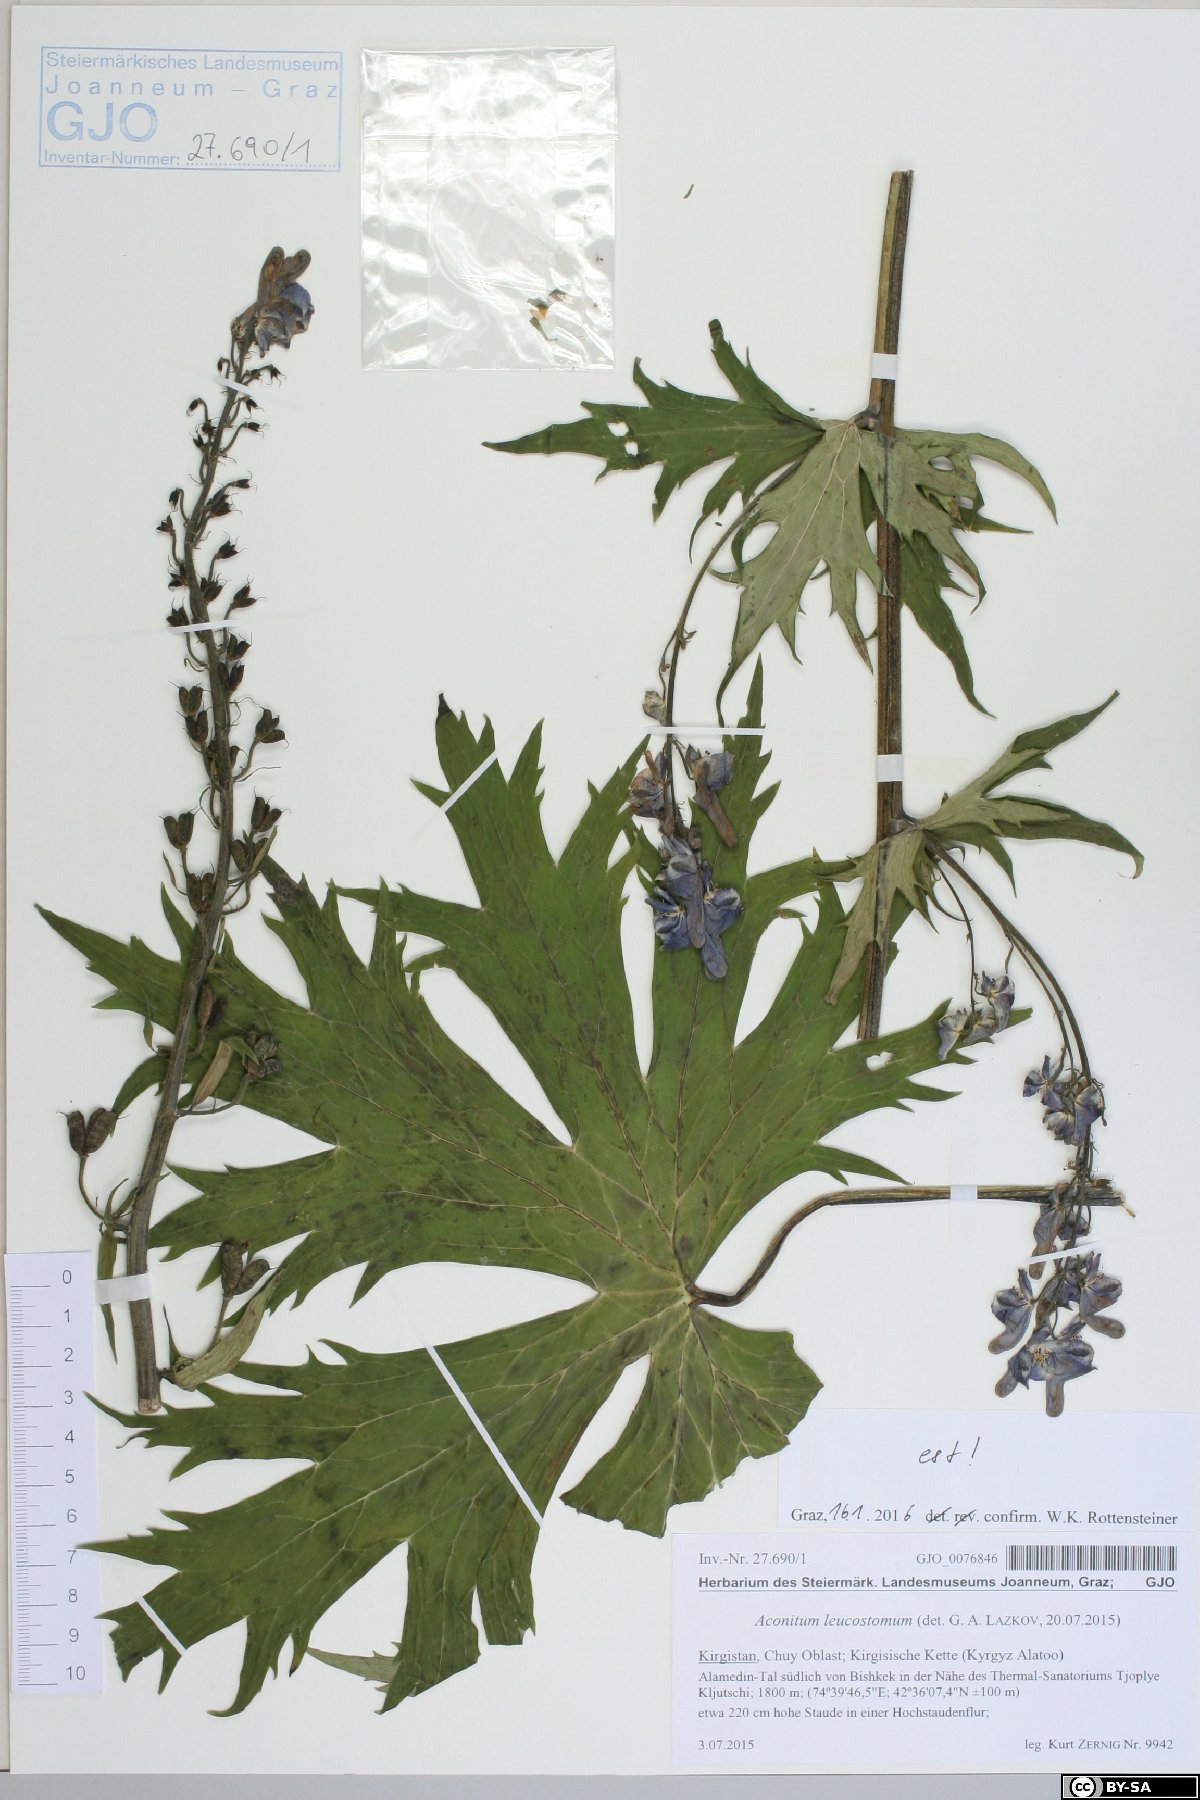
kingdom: Plantae
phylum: Tracheophyta
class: Magnoliopsida
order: Ranunculales
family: Ranunculaceae
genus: Aconitum
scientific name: Aconitum leucostomum
